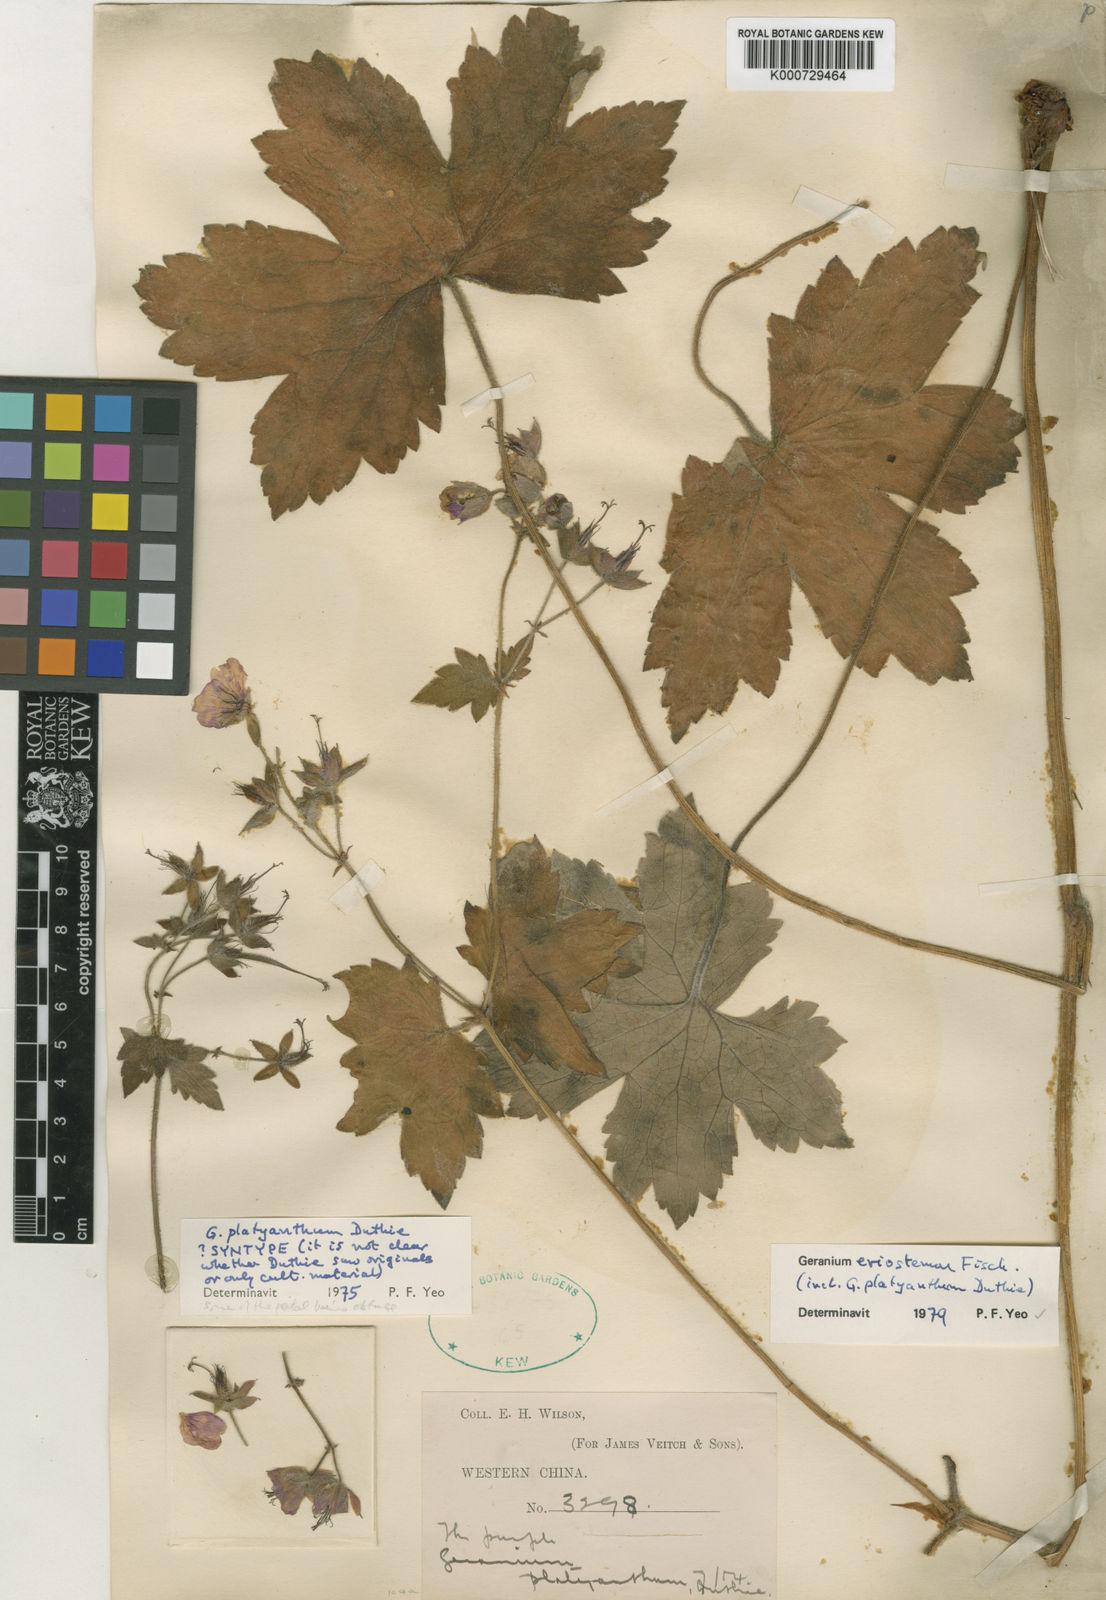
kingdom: Plantae
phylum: Tracheophyta
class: Magnoliopsida
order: Geraniales
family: Geraniaceae
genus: Geranium
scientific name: Geranium platyanthum
